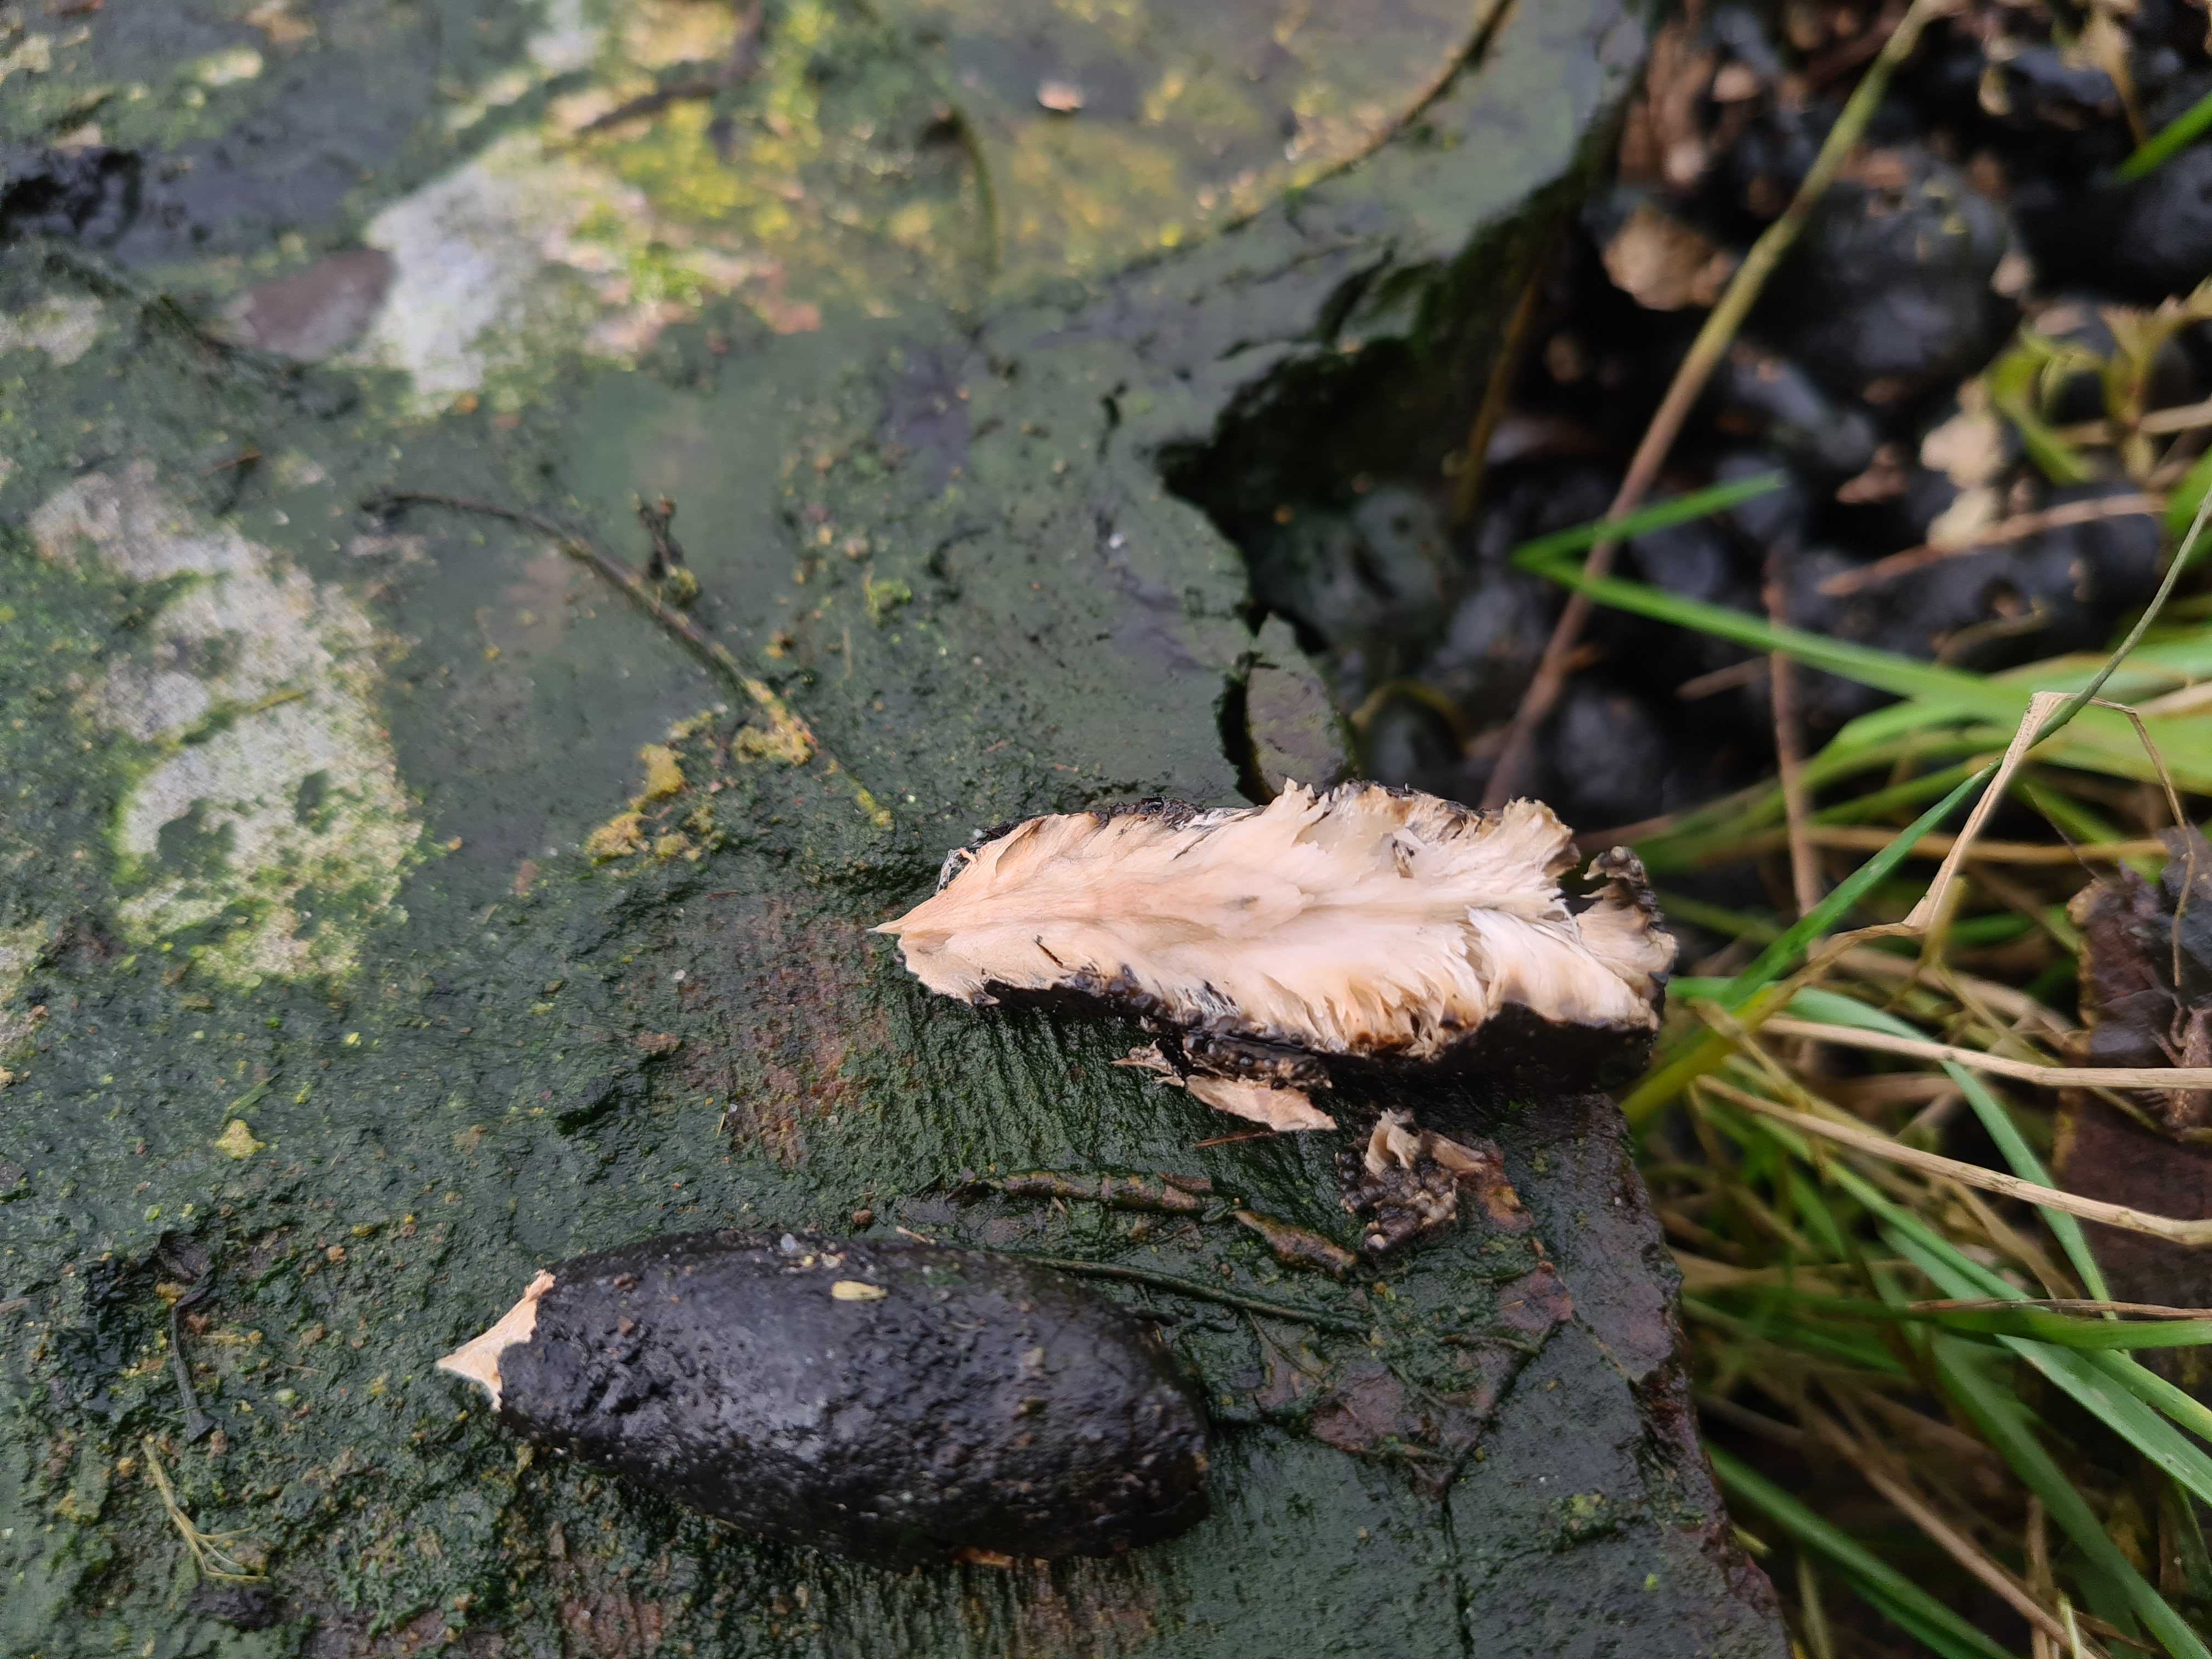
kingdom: Fungi
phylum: Ascomycota
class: Sordariomycetes
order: Xylariales
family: Xylariaceae
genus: Xylaria
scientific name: Xylaria polymorpha
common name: kølle-stødsvamp
